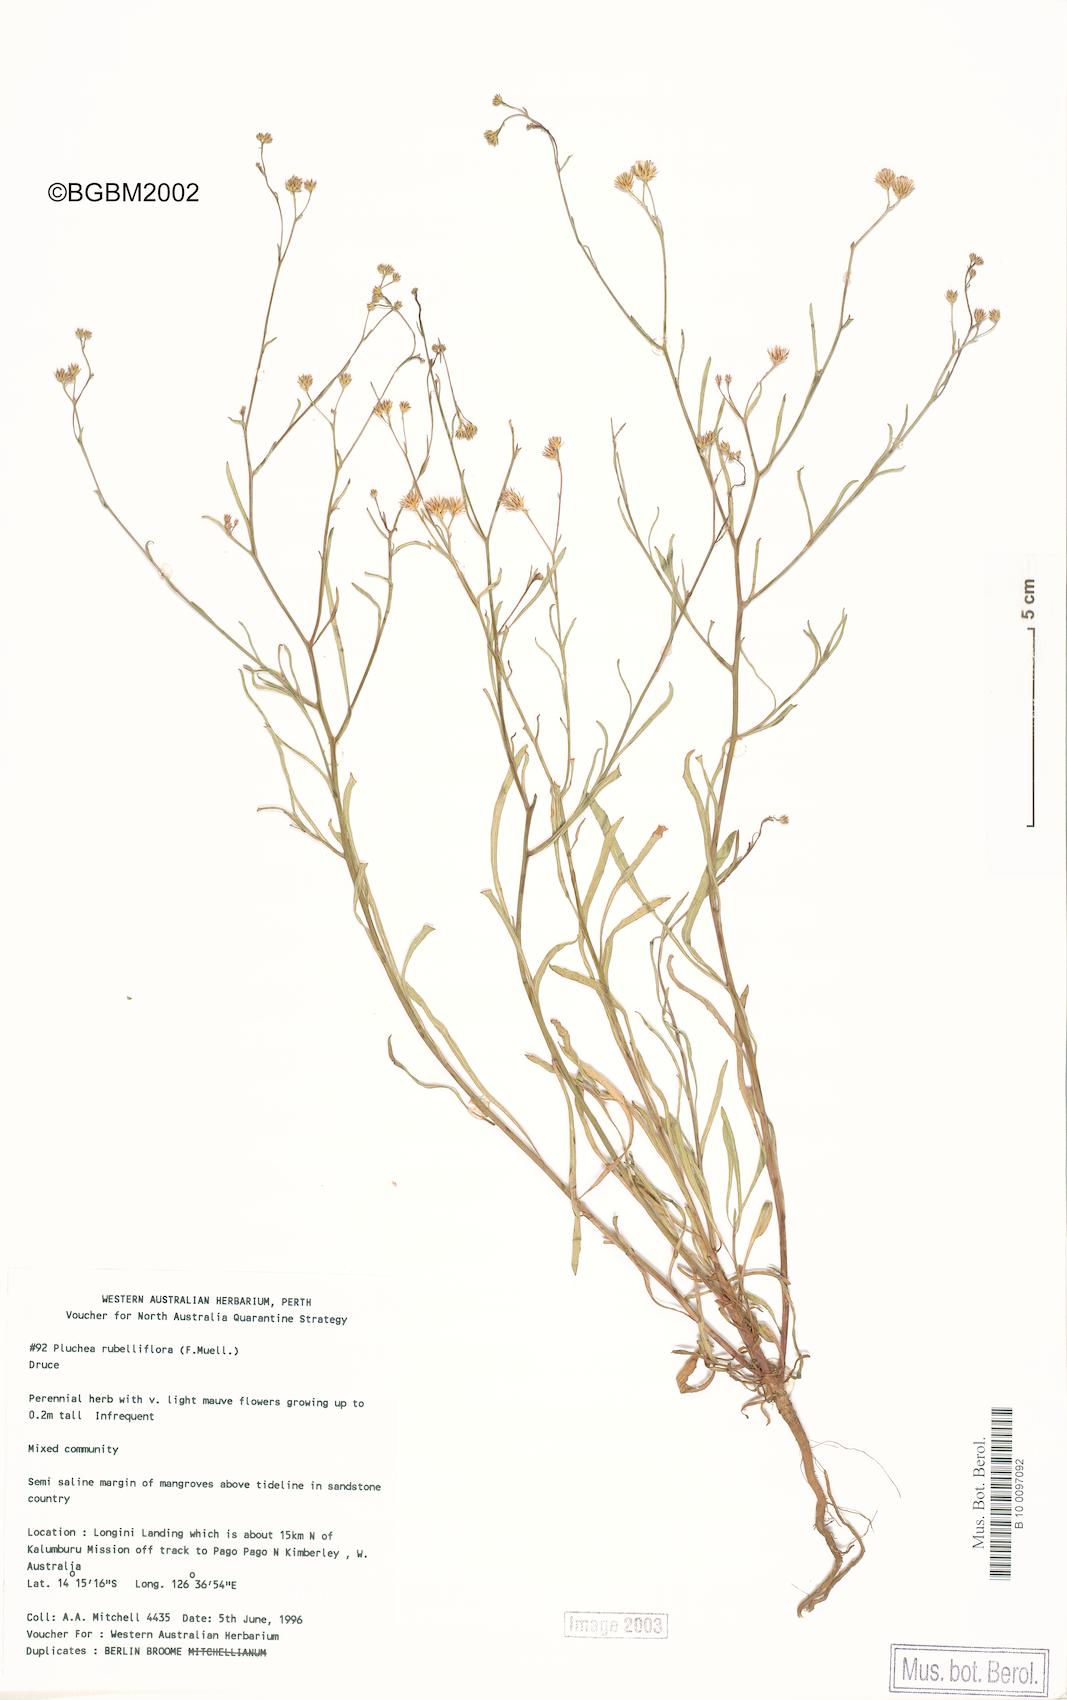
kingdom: Plantae
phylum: Tracheophyta
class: Magnoliopsida
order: Asterales
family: Asteraceae
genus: Pluchea
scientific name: Pluchea rubelliflora
